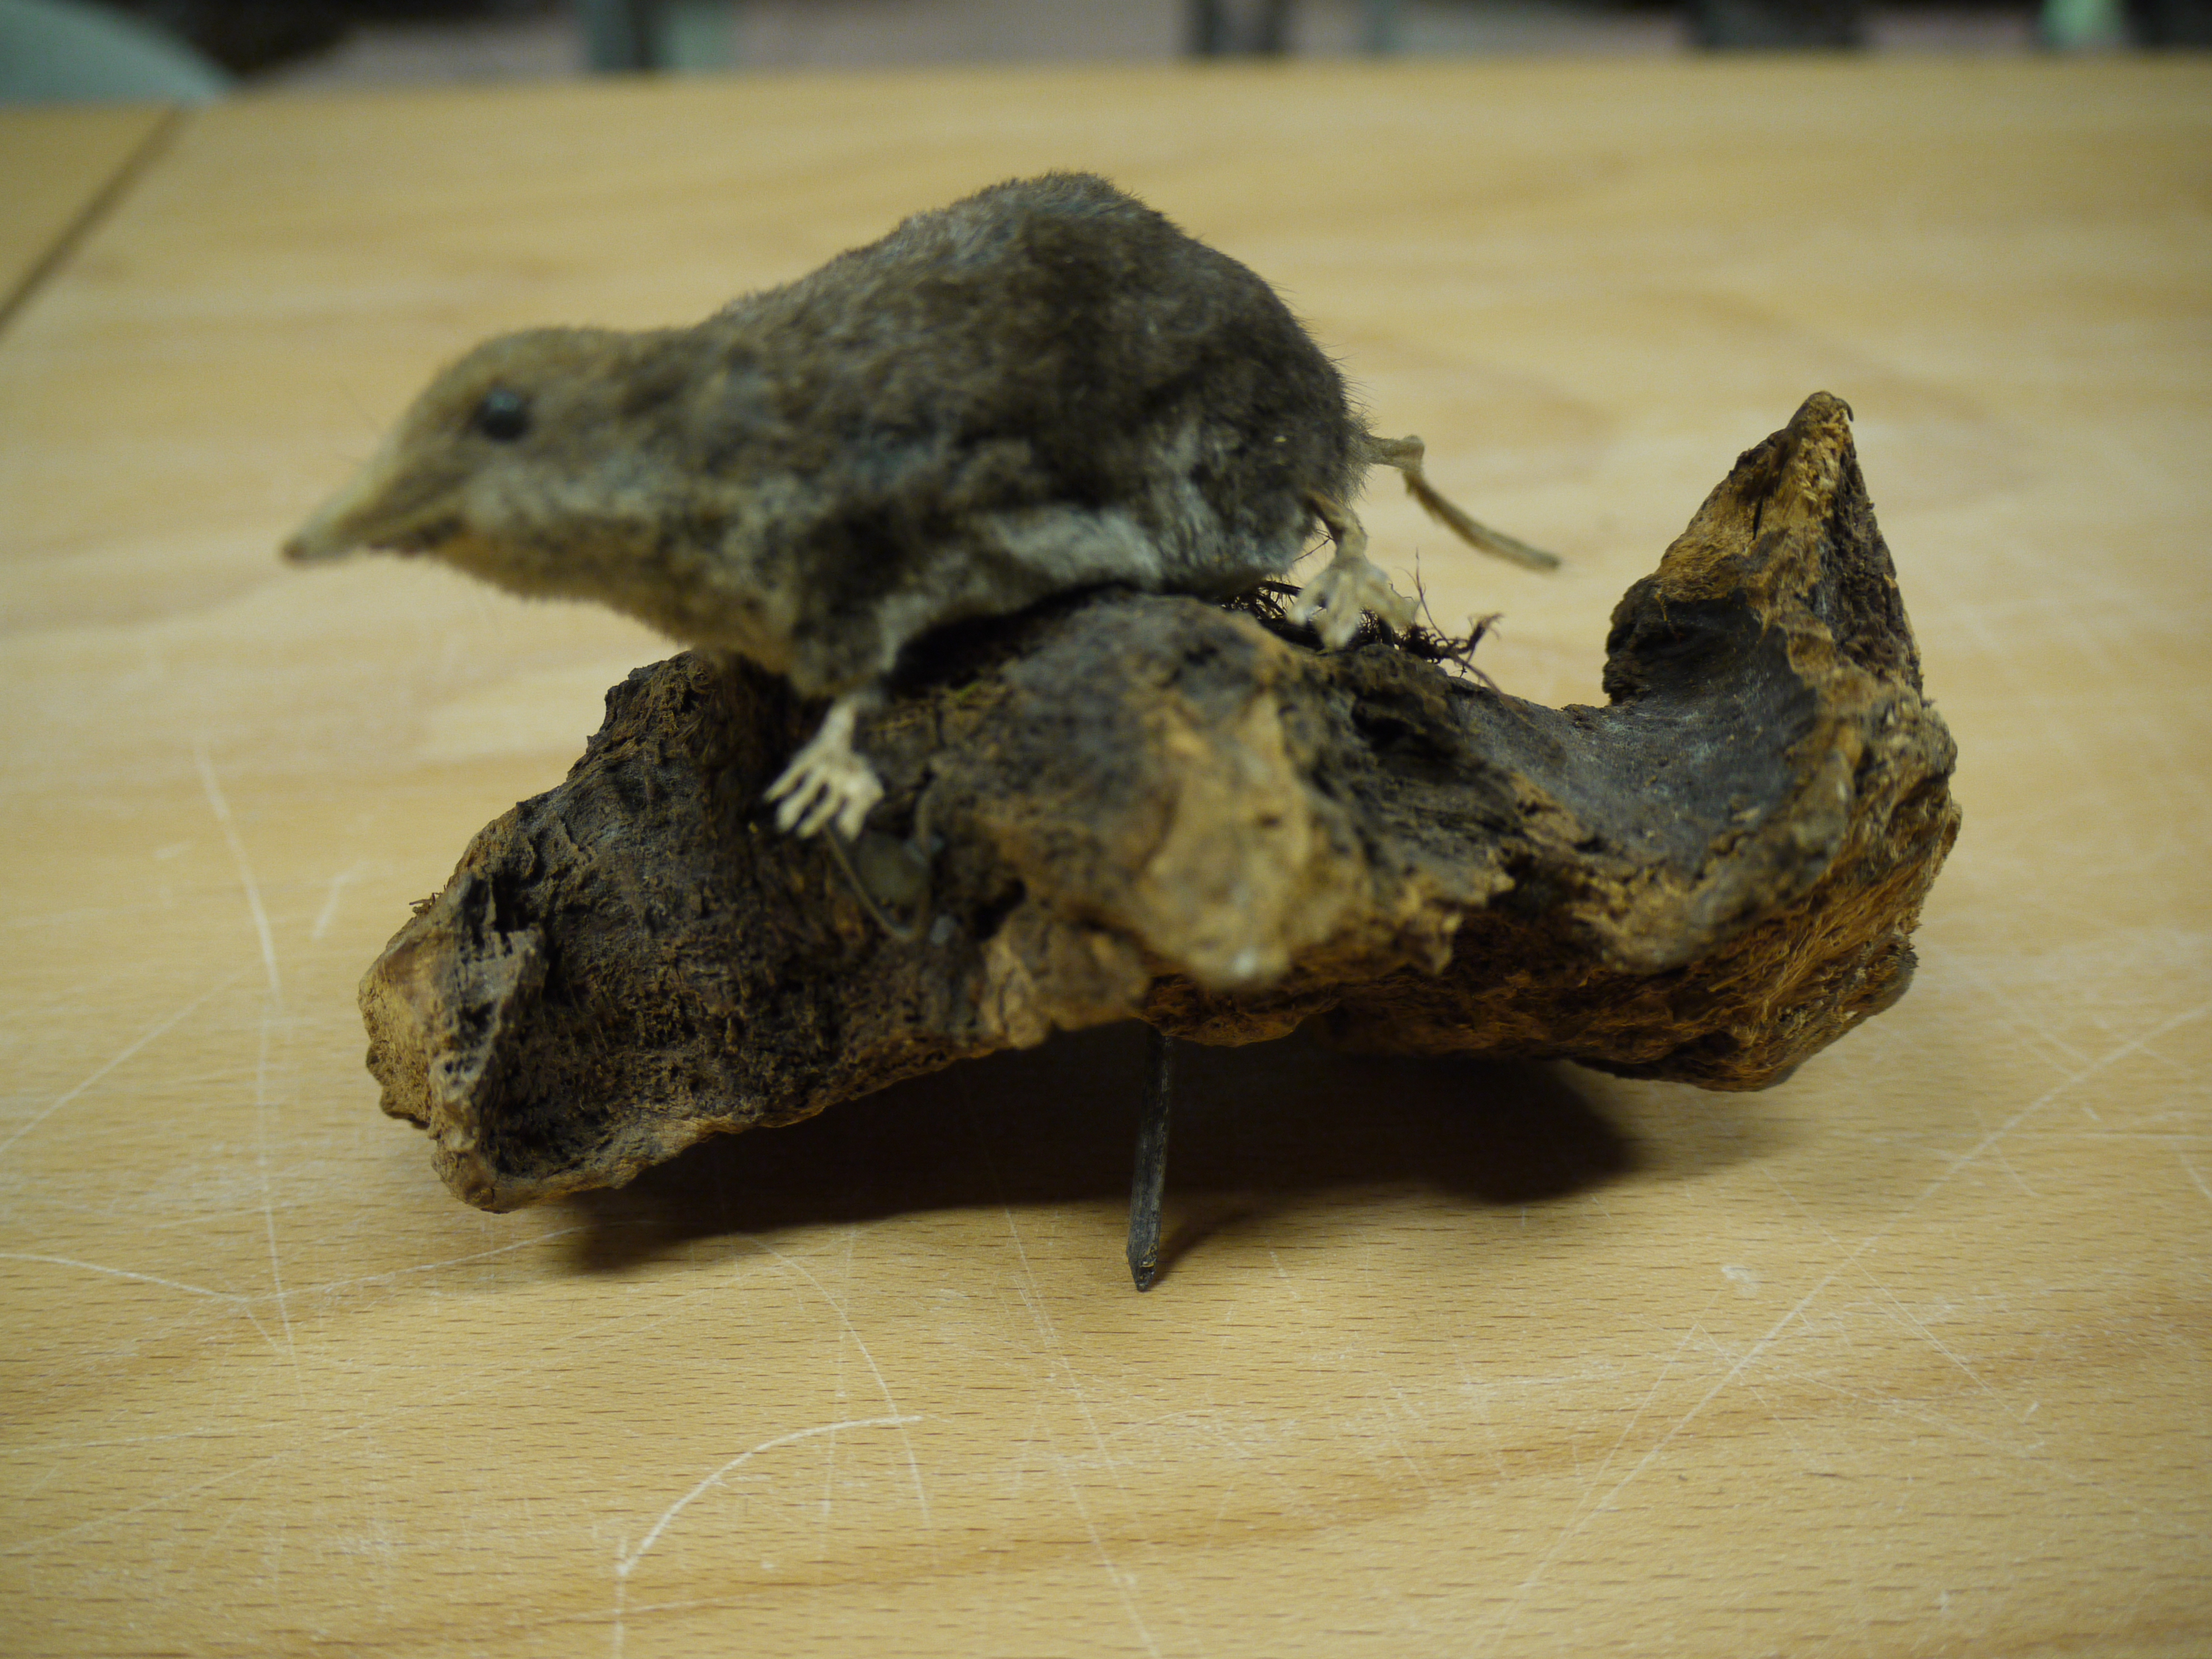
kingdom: Animalia
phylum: Chordata
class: Mammalia
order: Soricomorpha
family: Soricidae
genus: Neomys
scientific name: Neomys fodiens
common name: Eurasian water shrew
